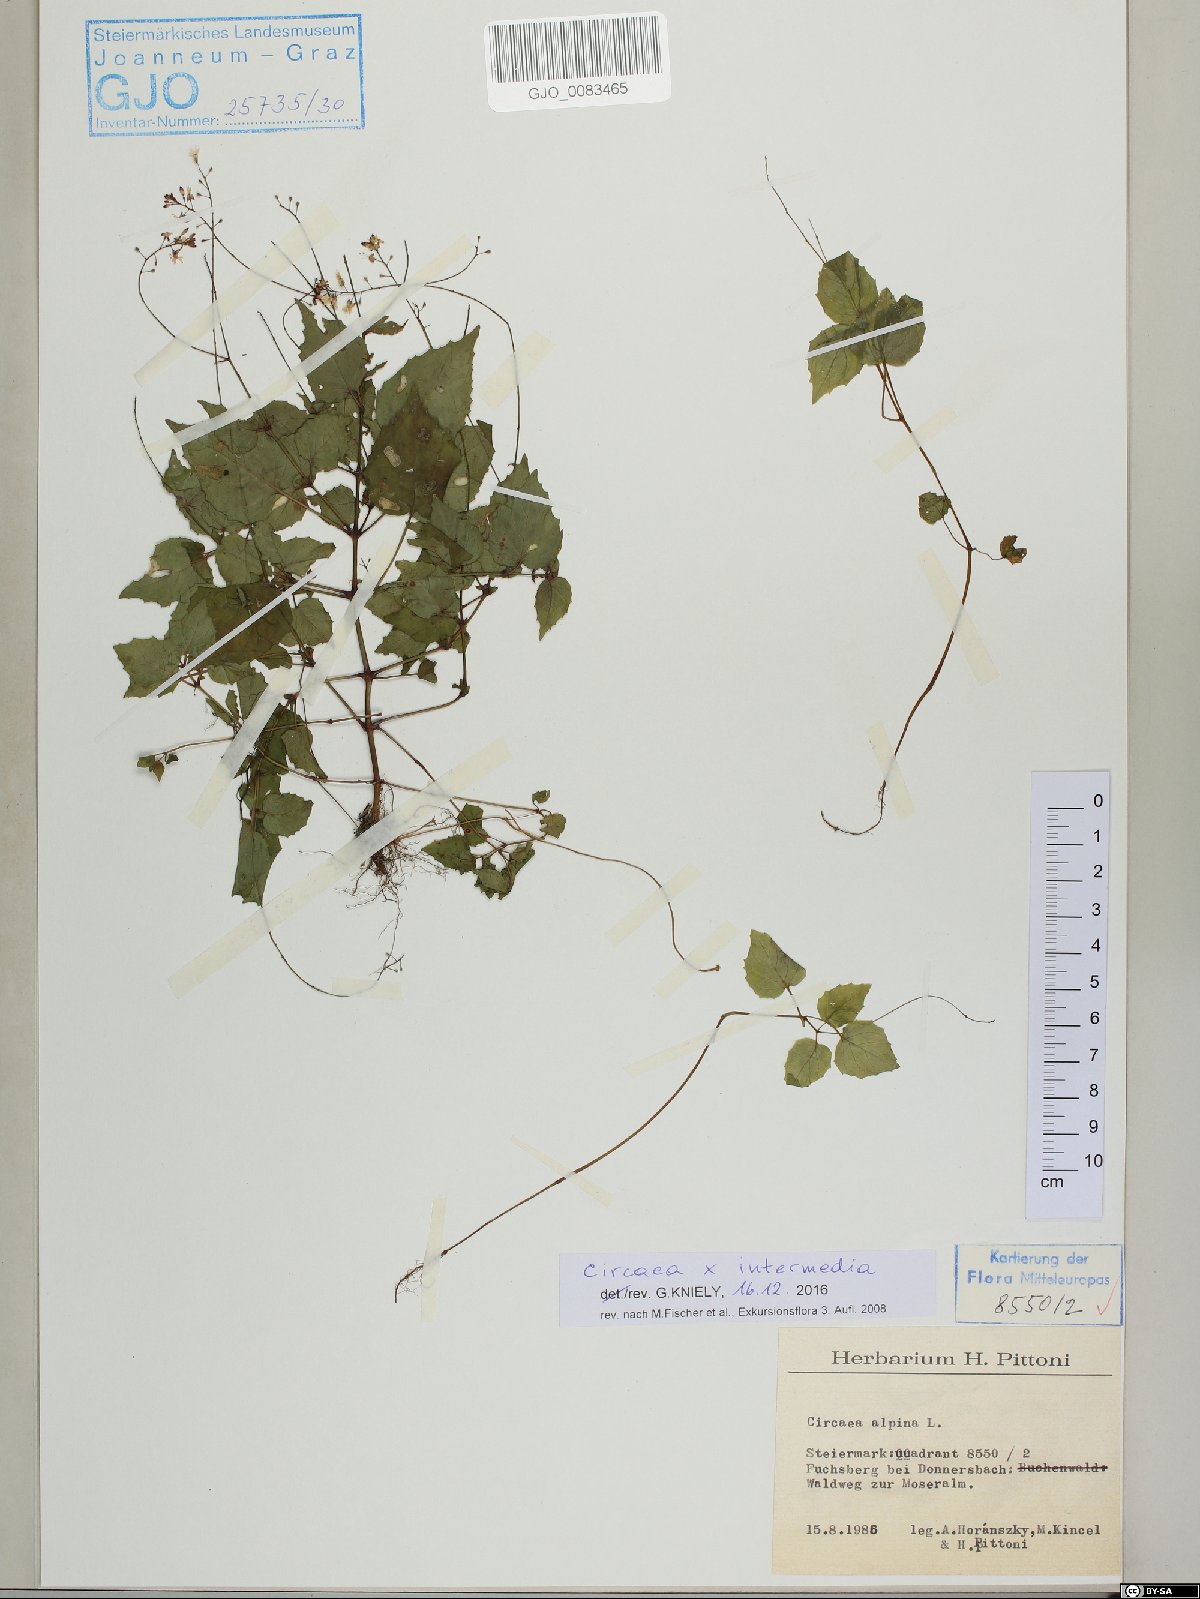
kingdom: Plantae
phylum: Tracheophyta
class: Magnoliopsida
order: Myrtales
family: Onagraceae
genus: Circaea
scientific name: Circaea intermedia
